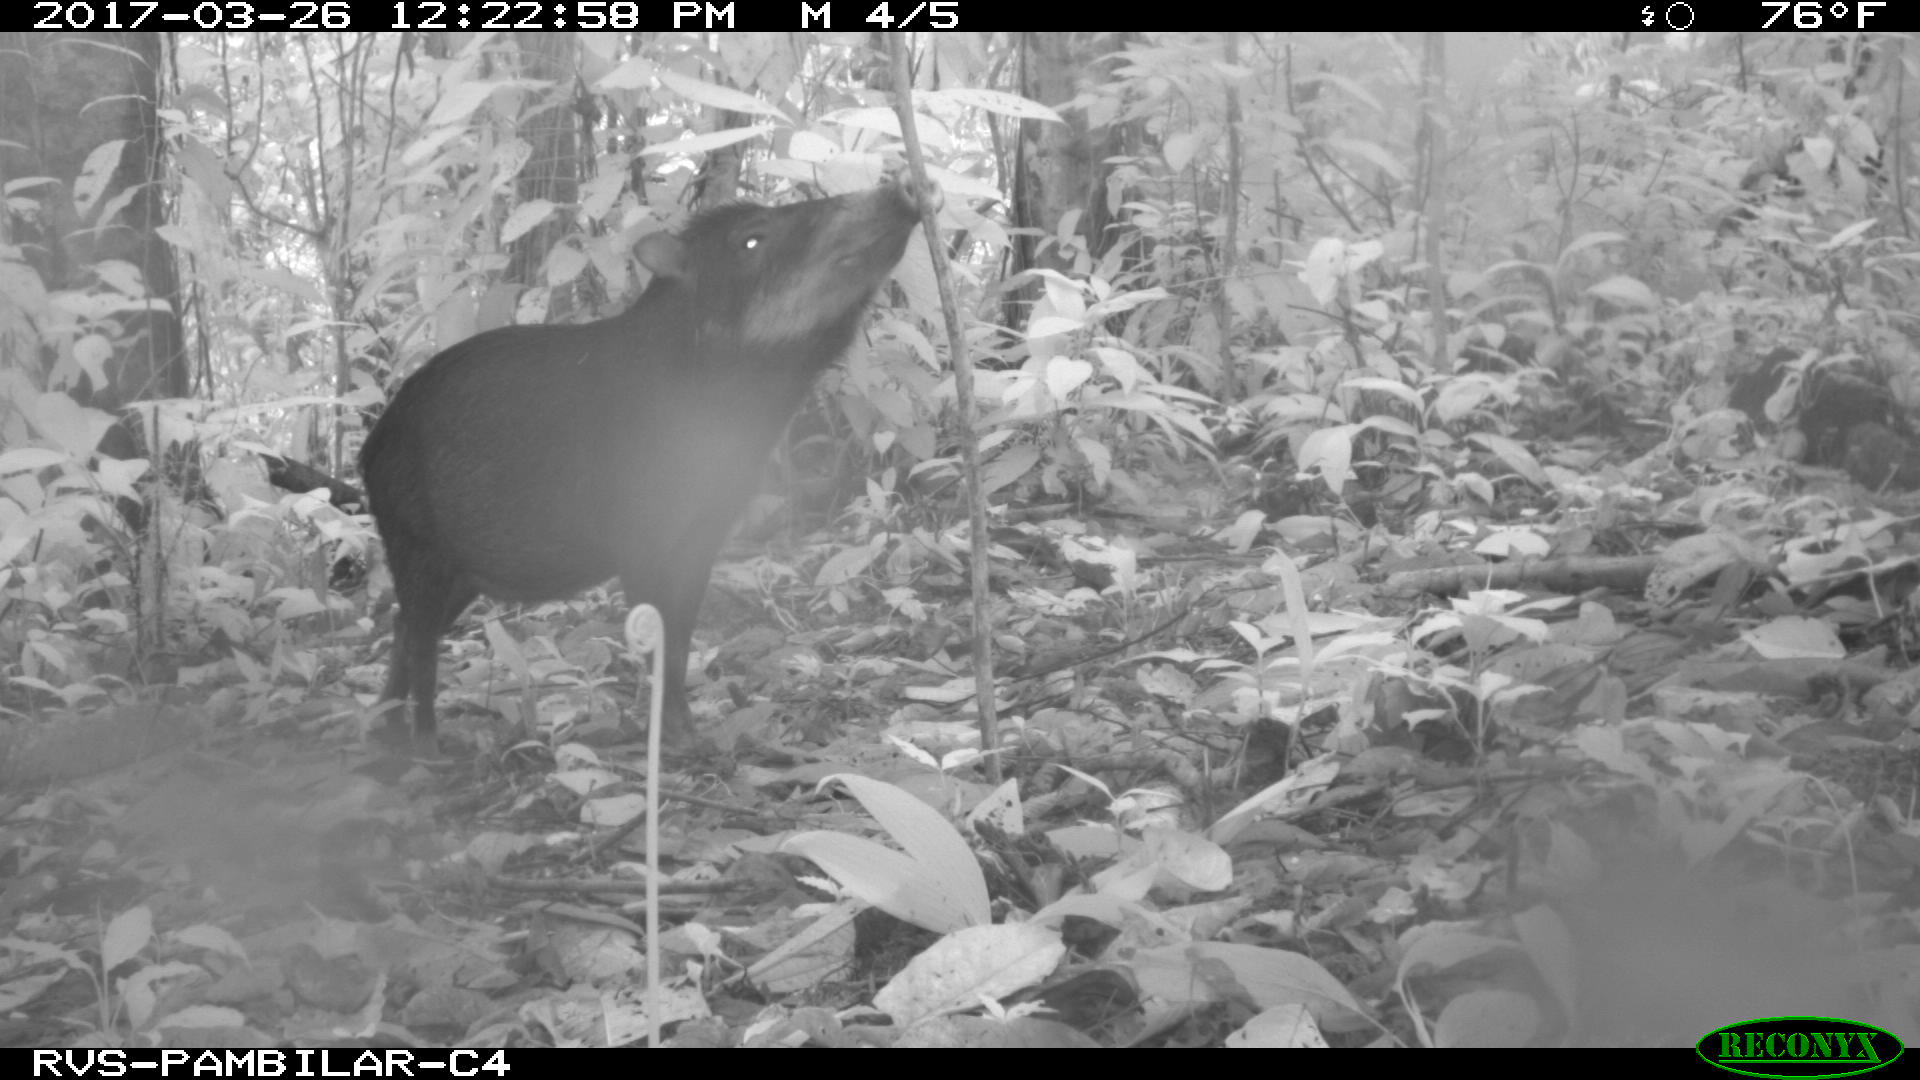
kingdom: Animalia
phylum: Chordata
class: Mammalia
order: Artiodactyla
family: Tayassuidae
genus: Tayassu
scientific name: Tayassu pecari
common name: White-lipped peccary
